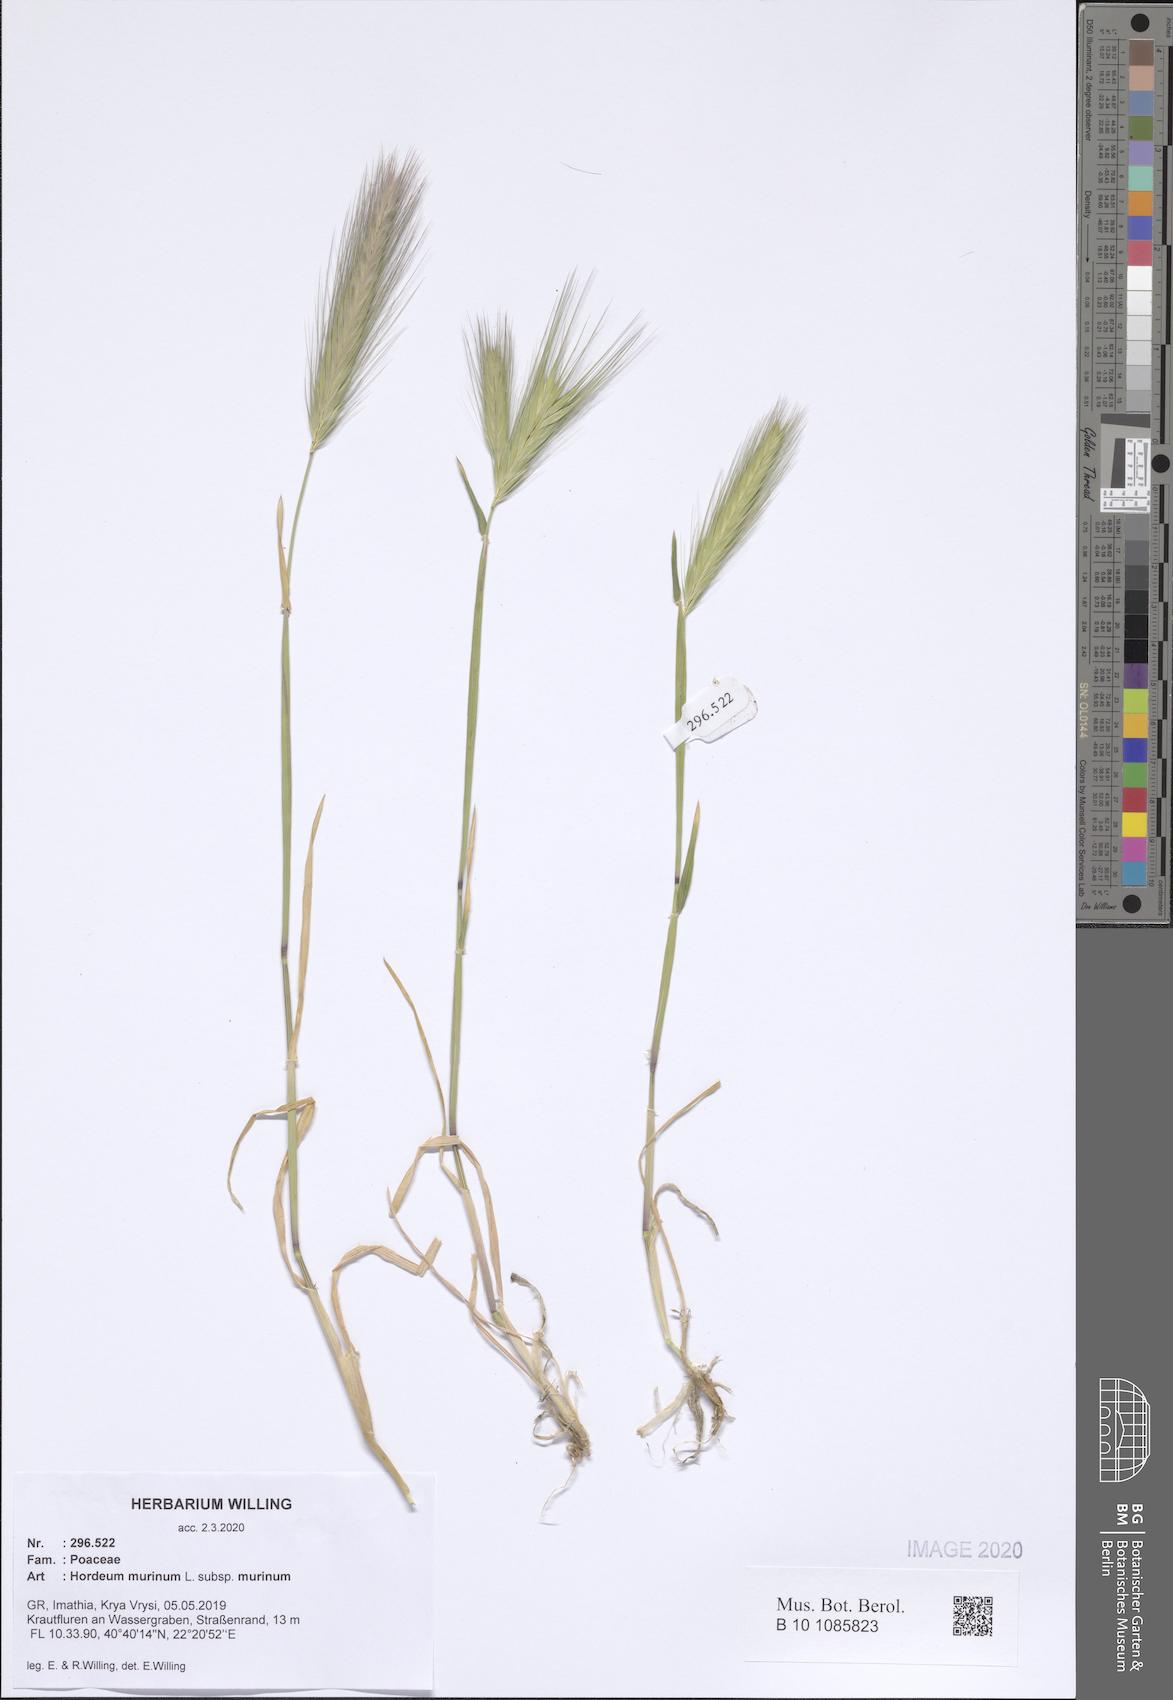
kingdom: Plantae
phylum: Tracheophyta
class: Liliopsida
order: Poales
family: Poaceae
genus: Hordeum
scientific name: Hordeum murinum
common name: Wall barley
